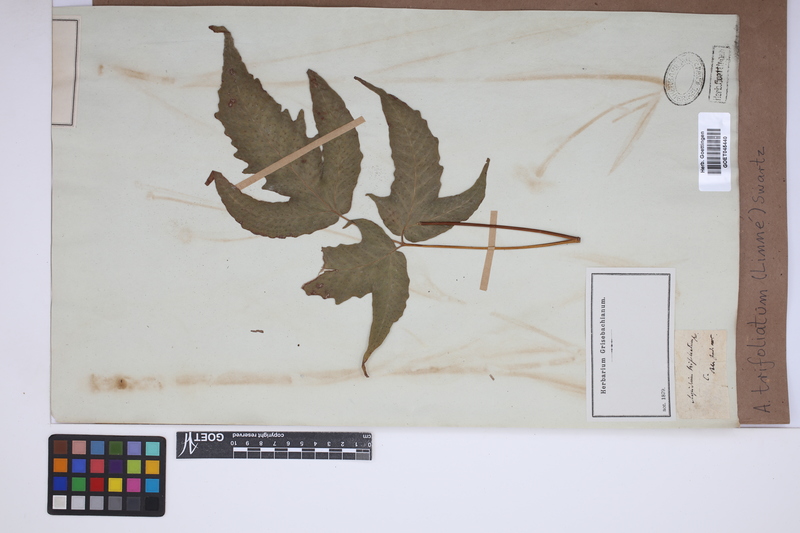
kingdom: Plantae
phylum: Tracheophyta
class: Polypodiopsida
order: Polypodiales
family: Tectariaceae
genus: Tectaria
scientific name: Tectaria trifoliata
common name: Threeleaf halberd fern
